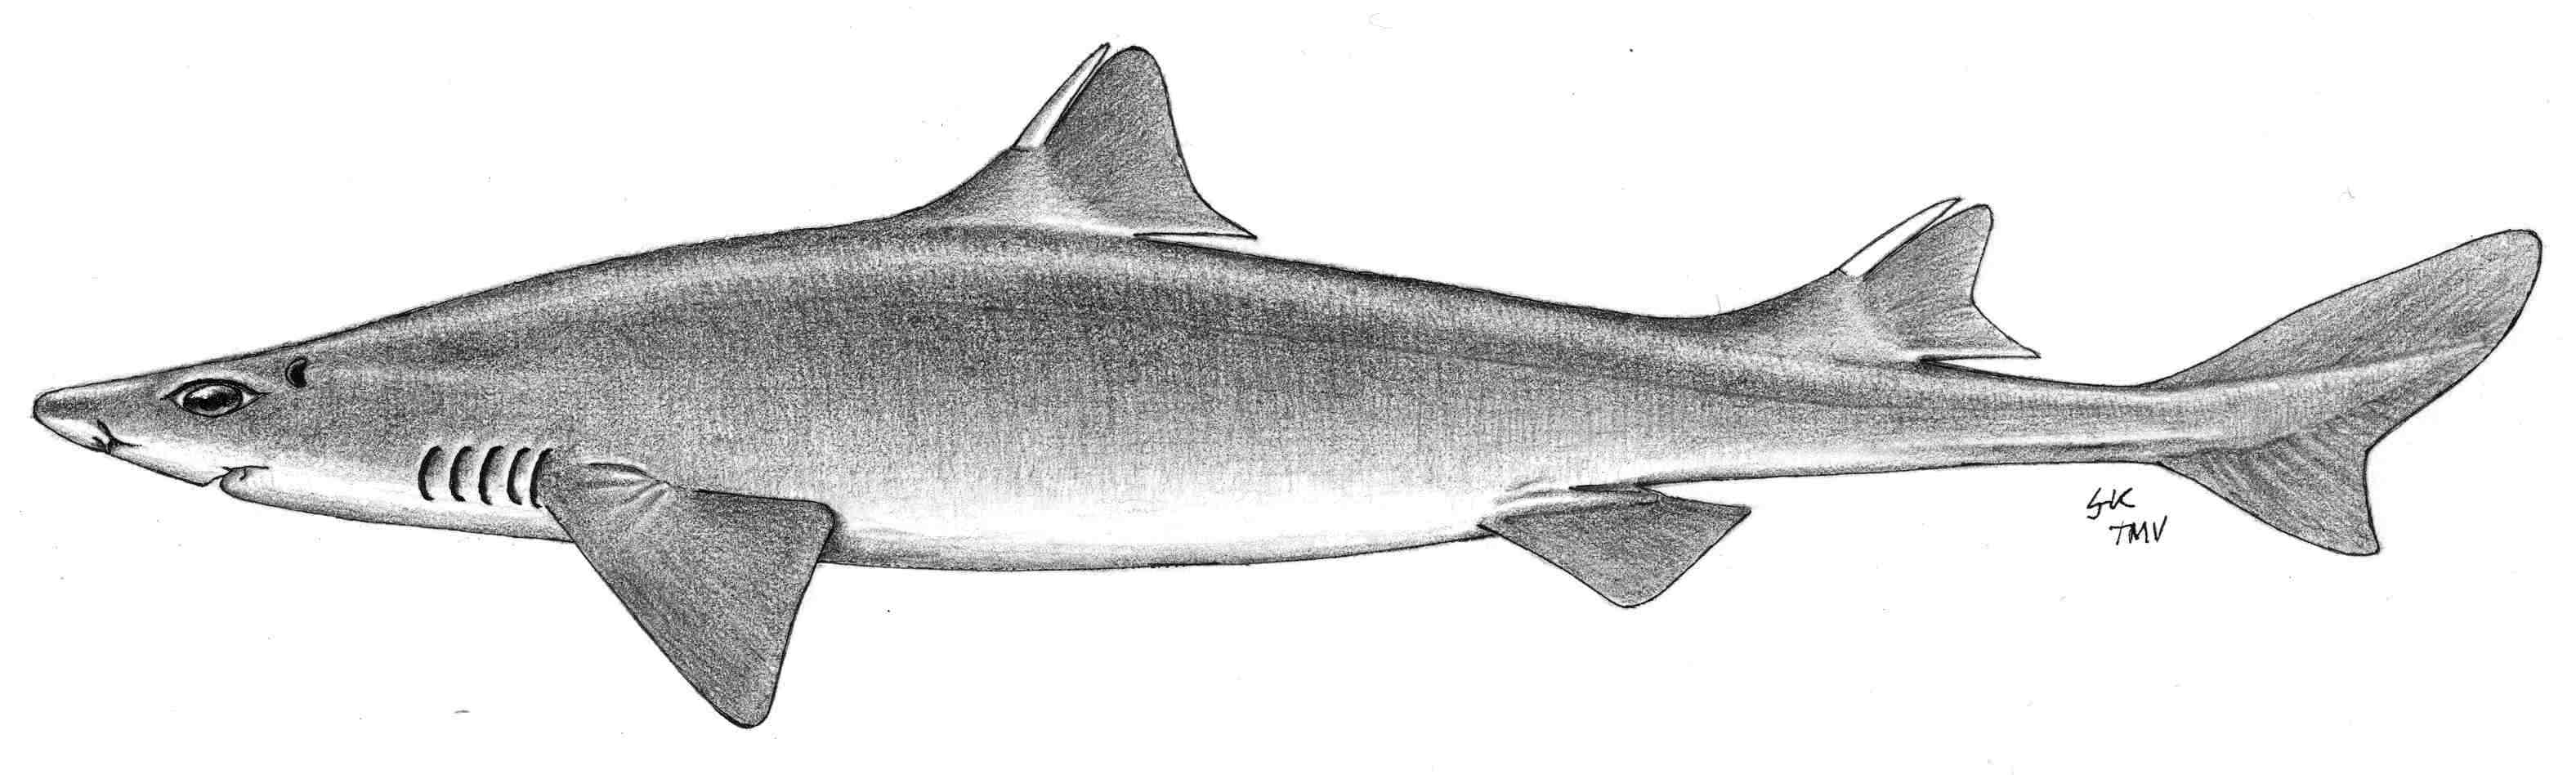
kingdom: Animalia
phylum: Chordata
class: Elasmobranchii
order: Squaliformes
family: Squalidae
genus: Cirrhigaleus
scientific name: Cirrhigaleus asper
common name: Roughskin dogfish
